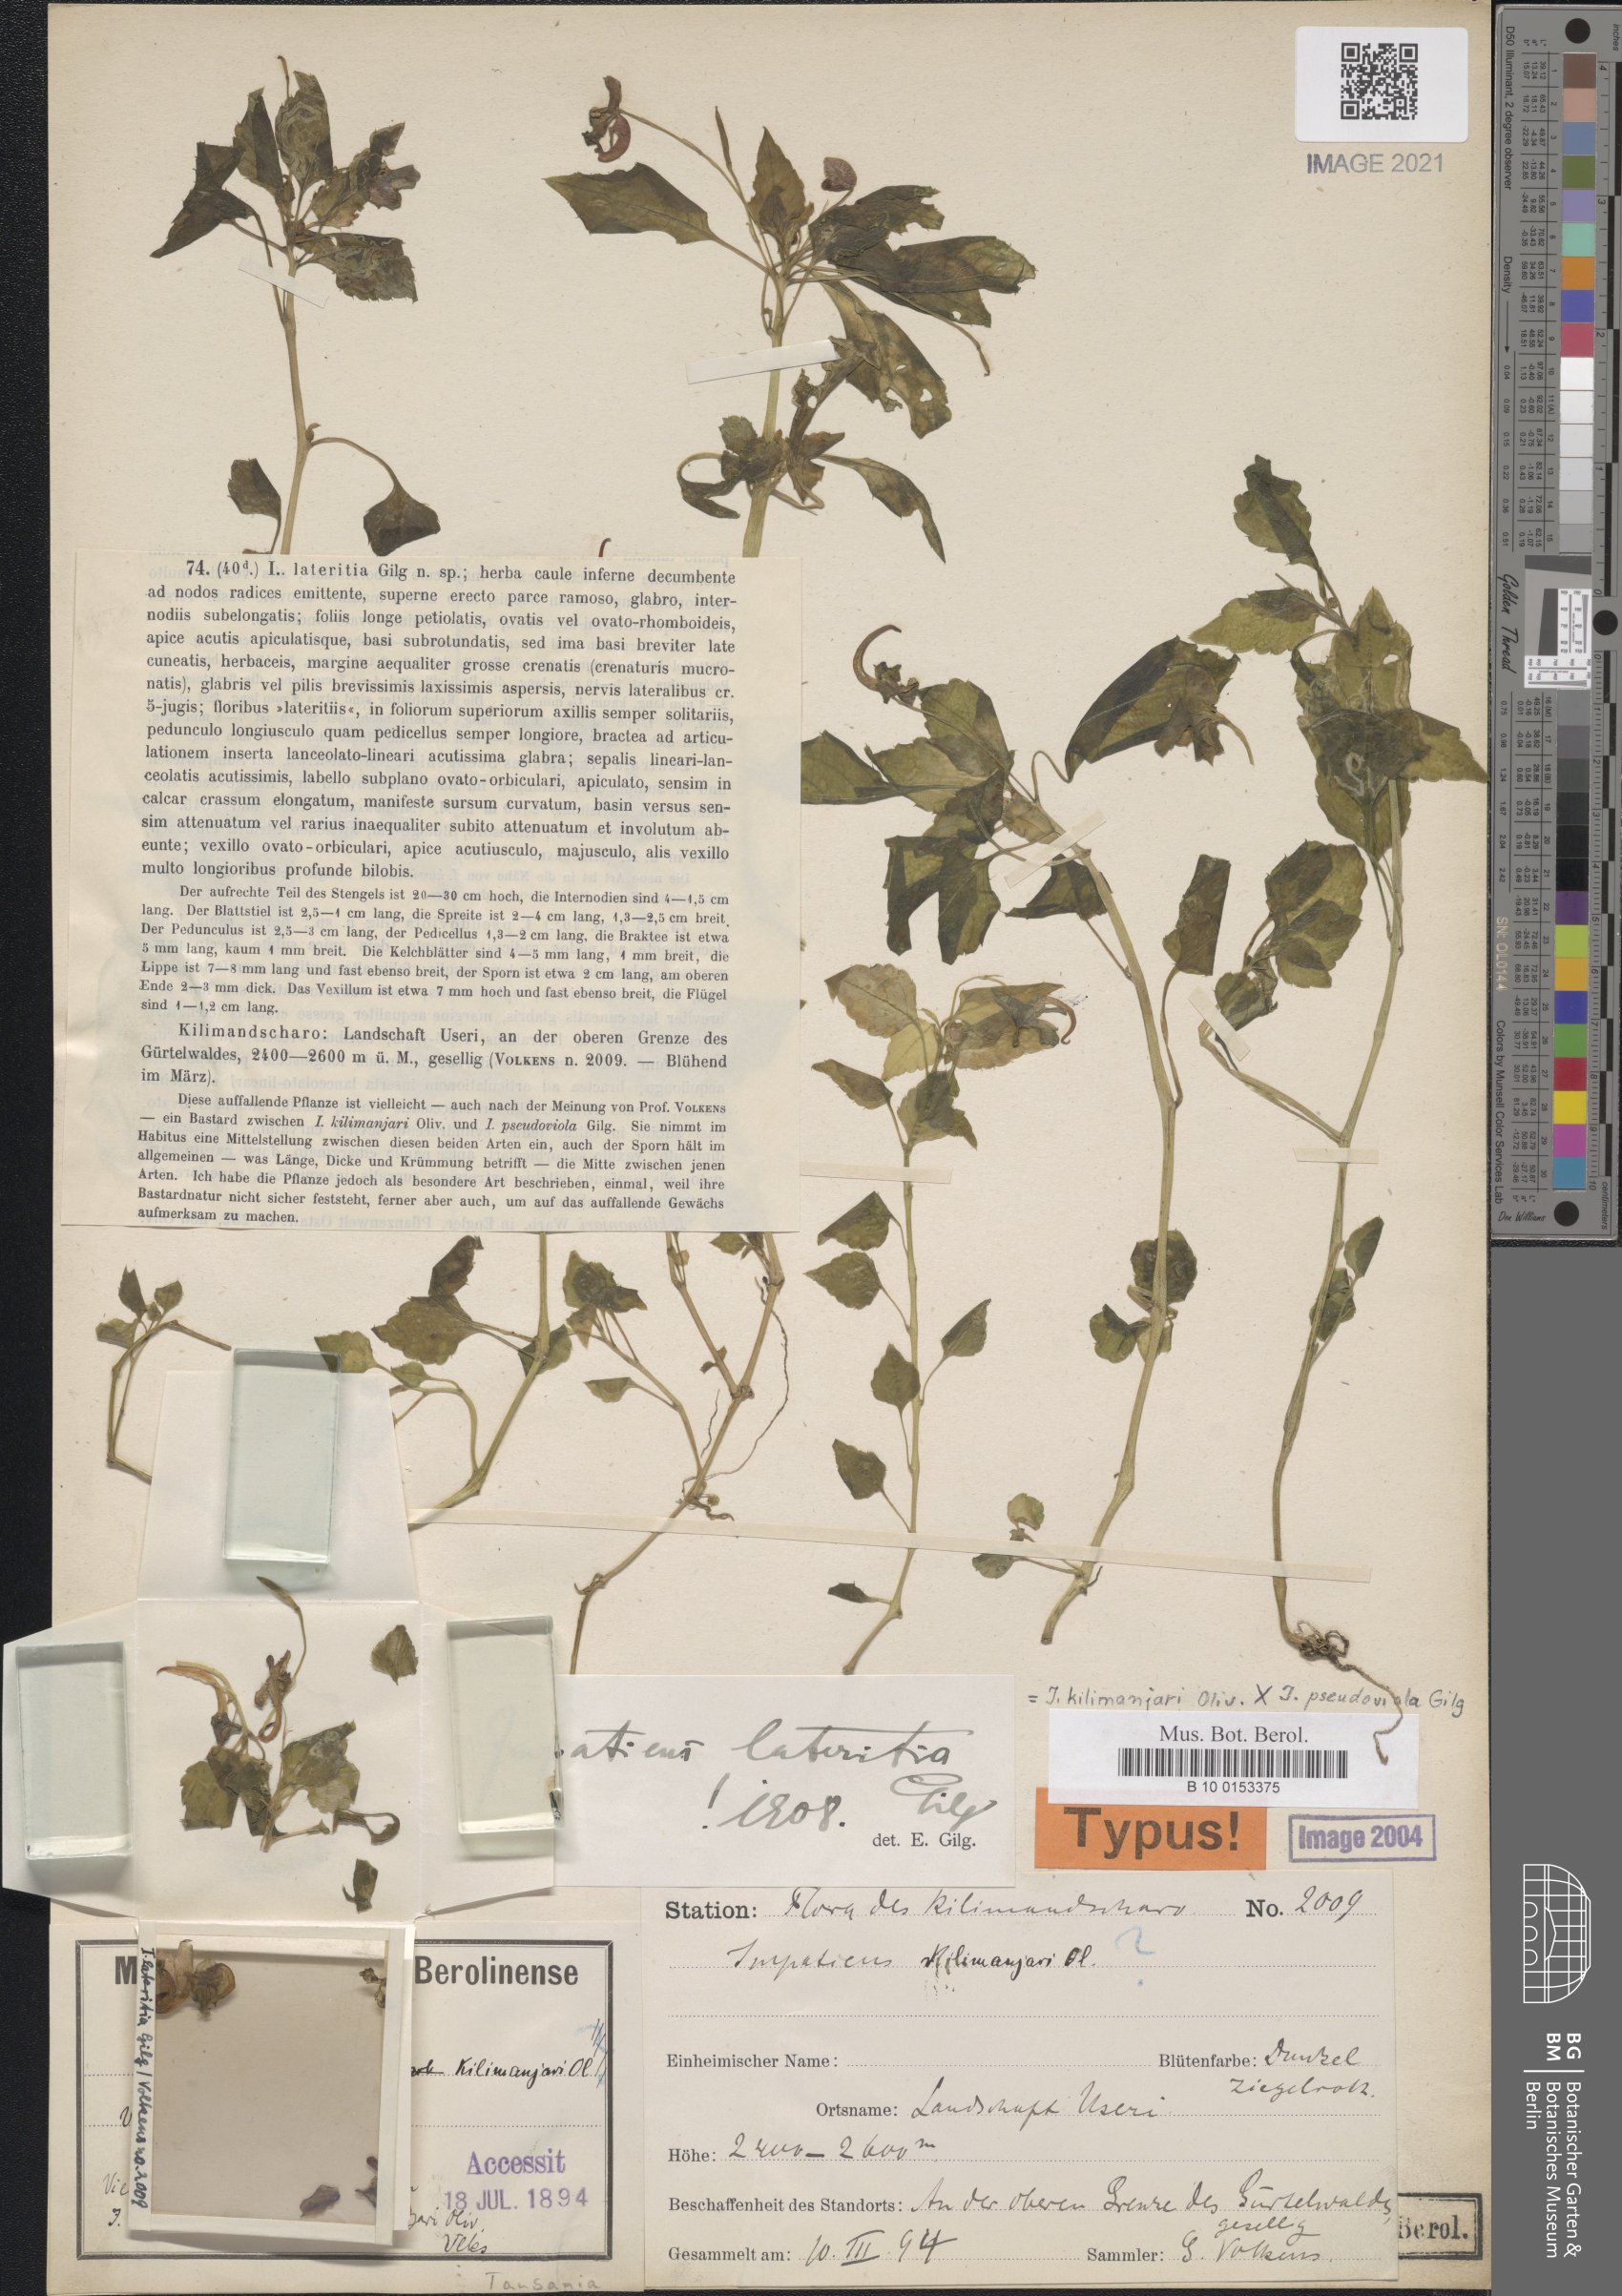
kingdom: Plantae
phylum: Tracheophyta
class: Magnoliopsida
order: Ericales
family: Balsaminaceae
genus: Impatiens
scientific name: Impatiens lateritia
